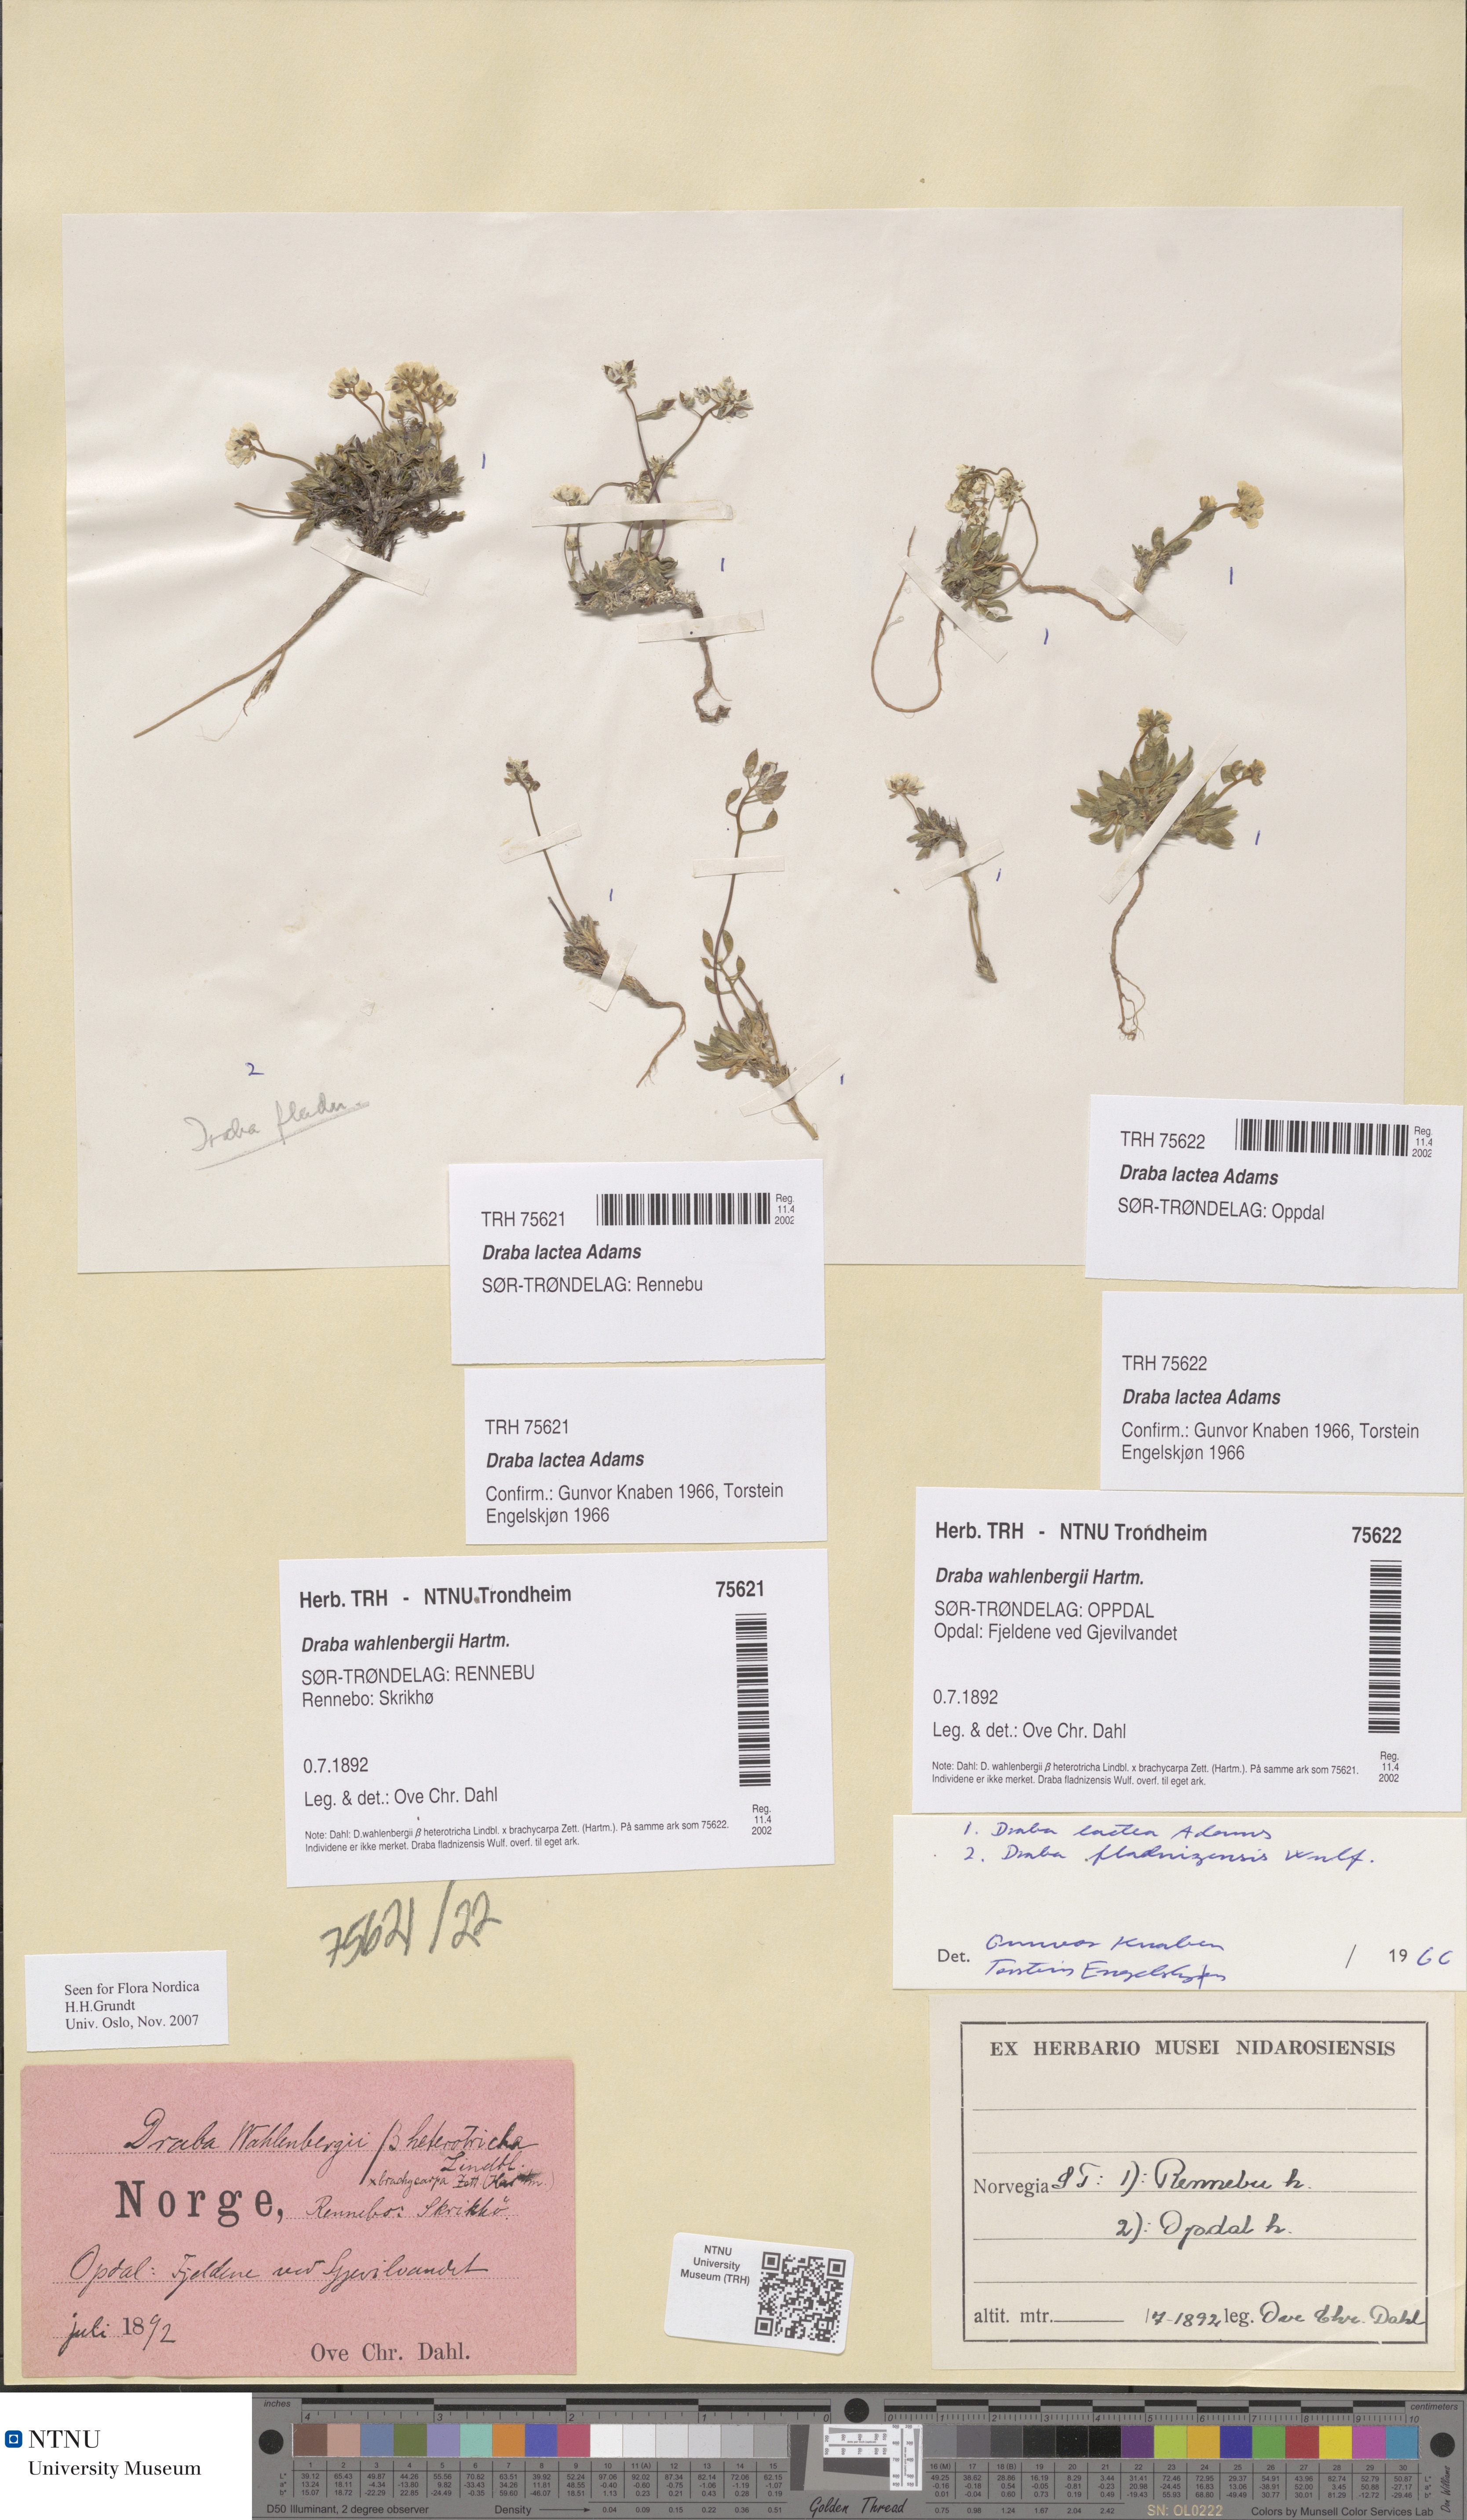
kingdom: Plantae
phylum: Tracheophyta
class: Magnoliopsida
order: Brassicales
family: Brassicaceae
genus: Draba
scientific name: Draba lactea
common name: Milky draba
